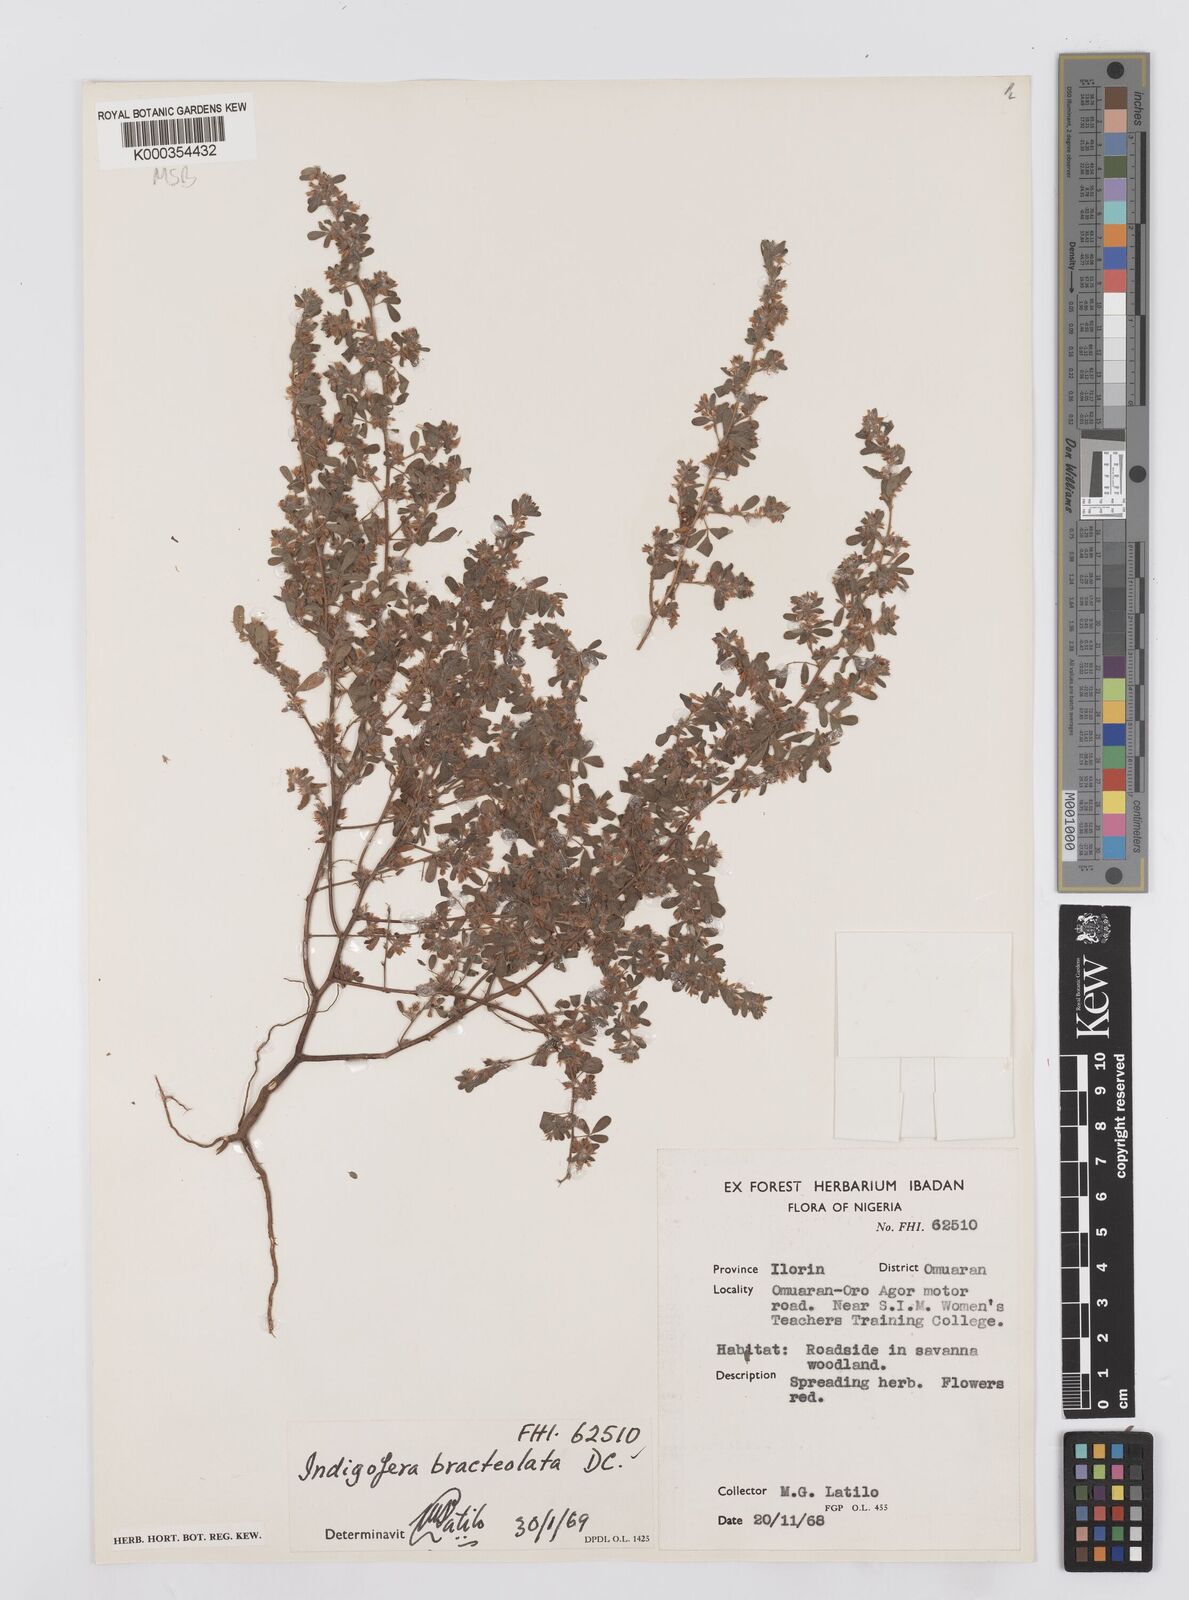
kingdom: Plantae
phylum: Tracheophyta
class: Magnoliopsida
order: Fabales
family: Fabaceae
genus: Indigofera
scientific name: Indigofera bracteolata
